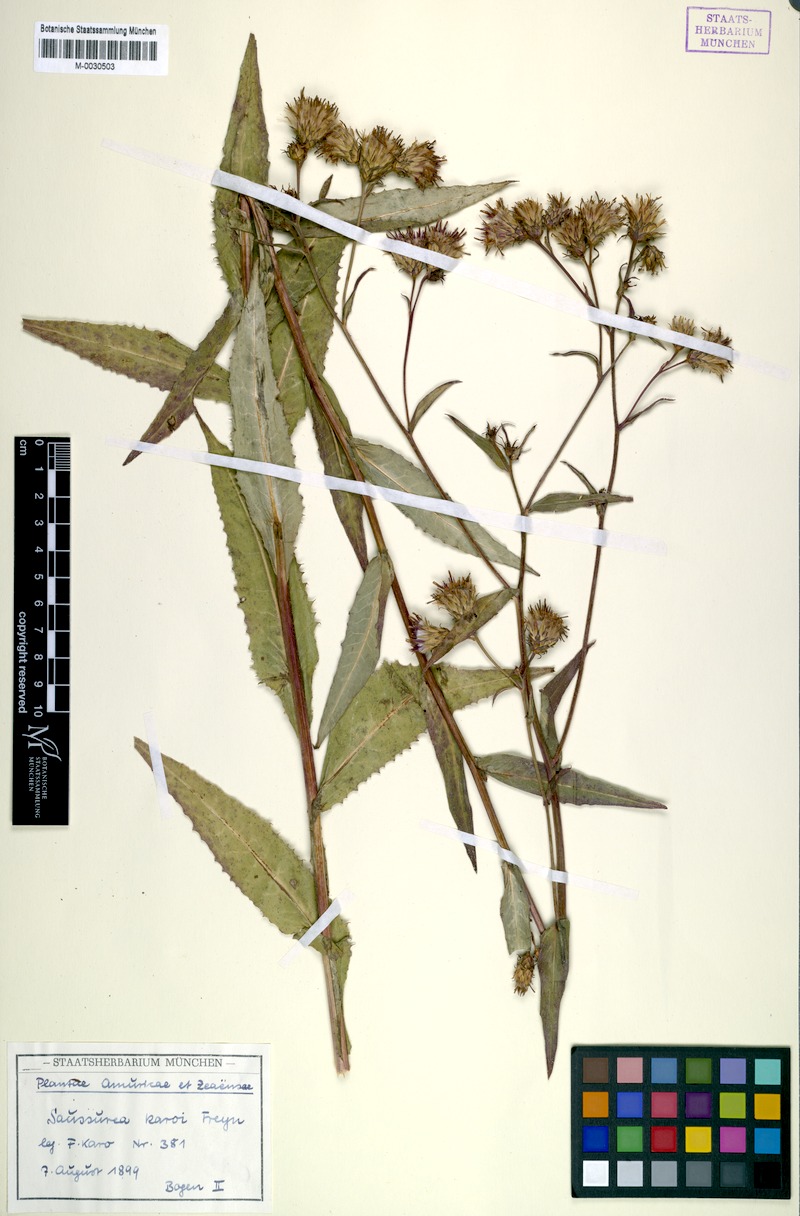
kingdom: Plantae
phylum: Tracheophyta
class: Magnoliopsida
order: Asterales
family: Asteraceae
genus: Saussurea
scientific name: Saussurea umbrosa
